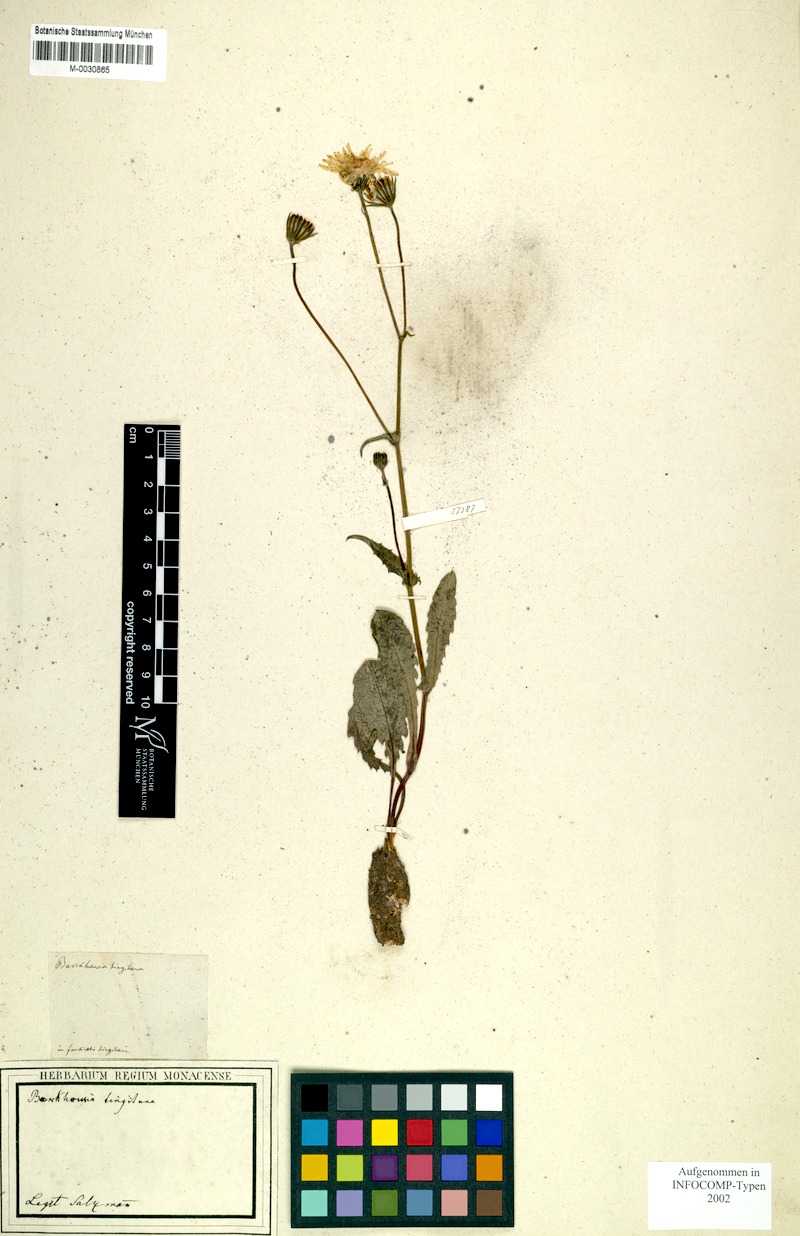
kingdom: Plantae
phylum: Tracheophyta
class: Magnoliopsida
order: Asterales
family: Asteraceae
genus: Crepis
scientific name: Crepis tingitana
